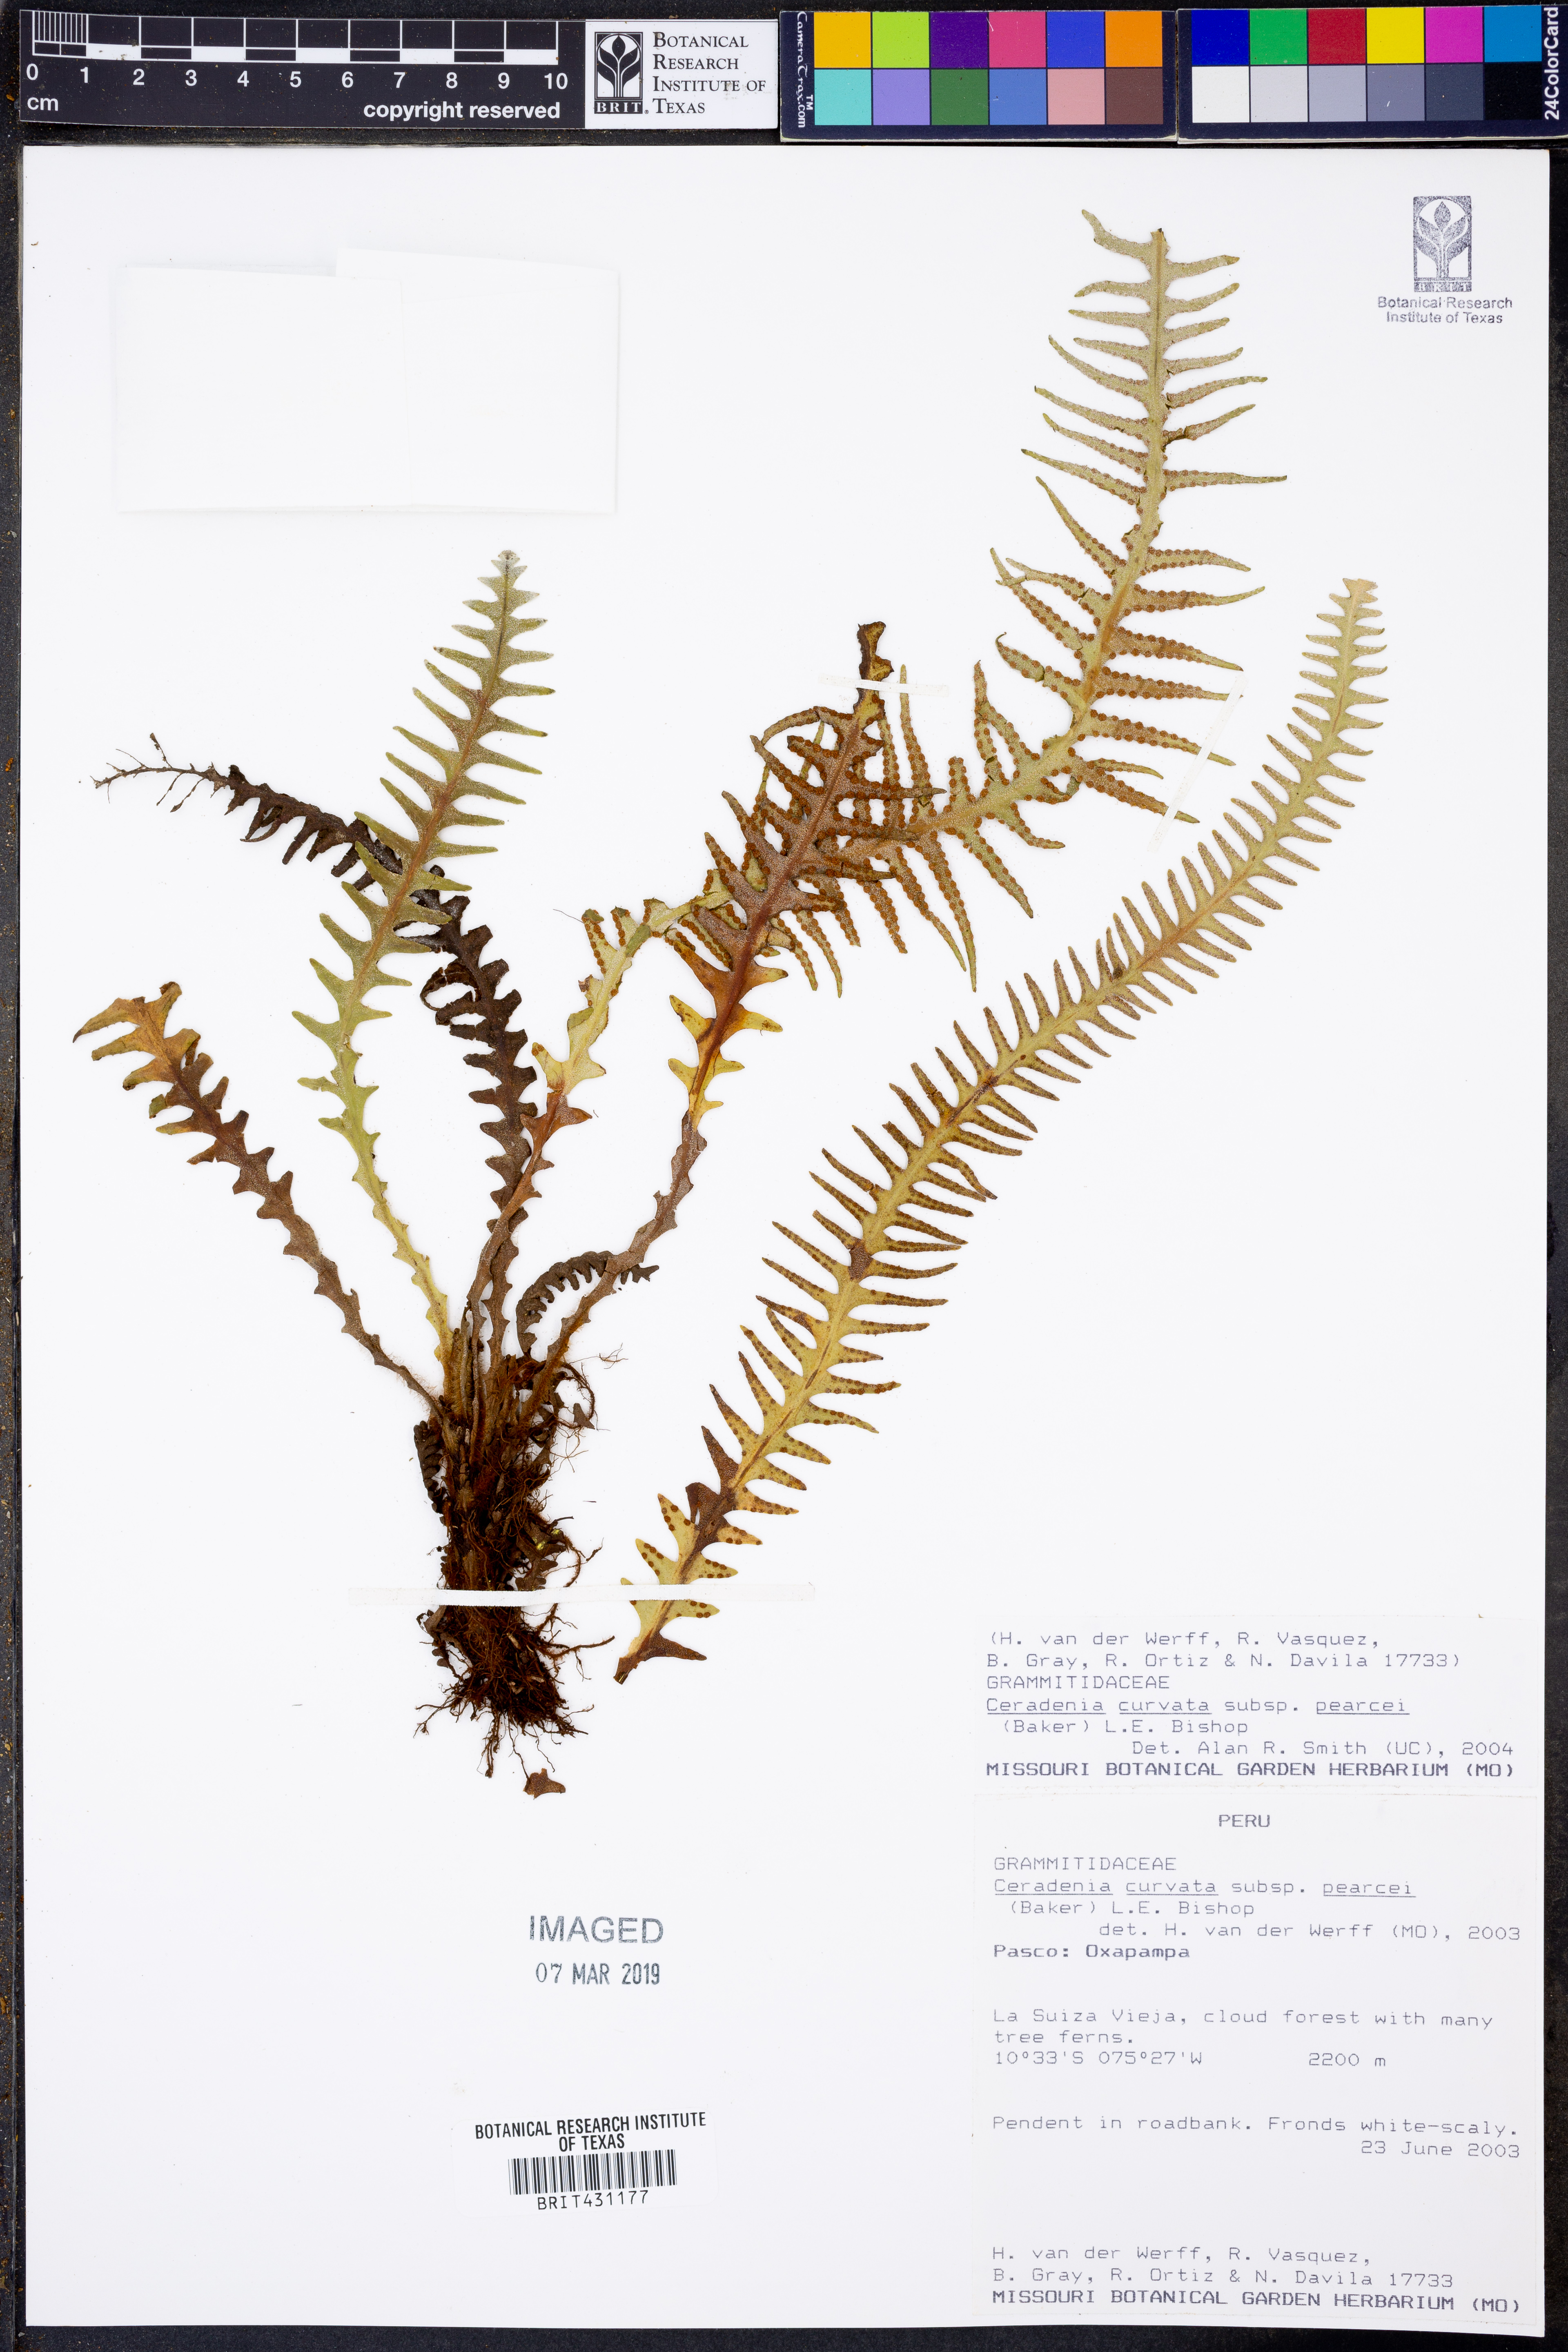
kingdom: Plantae
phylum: Tracheophyta
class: Polypodiopsida
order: Polypodiales
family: Polypodiaceae
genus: Ceradenia
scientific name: Ceradenia curvata
